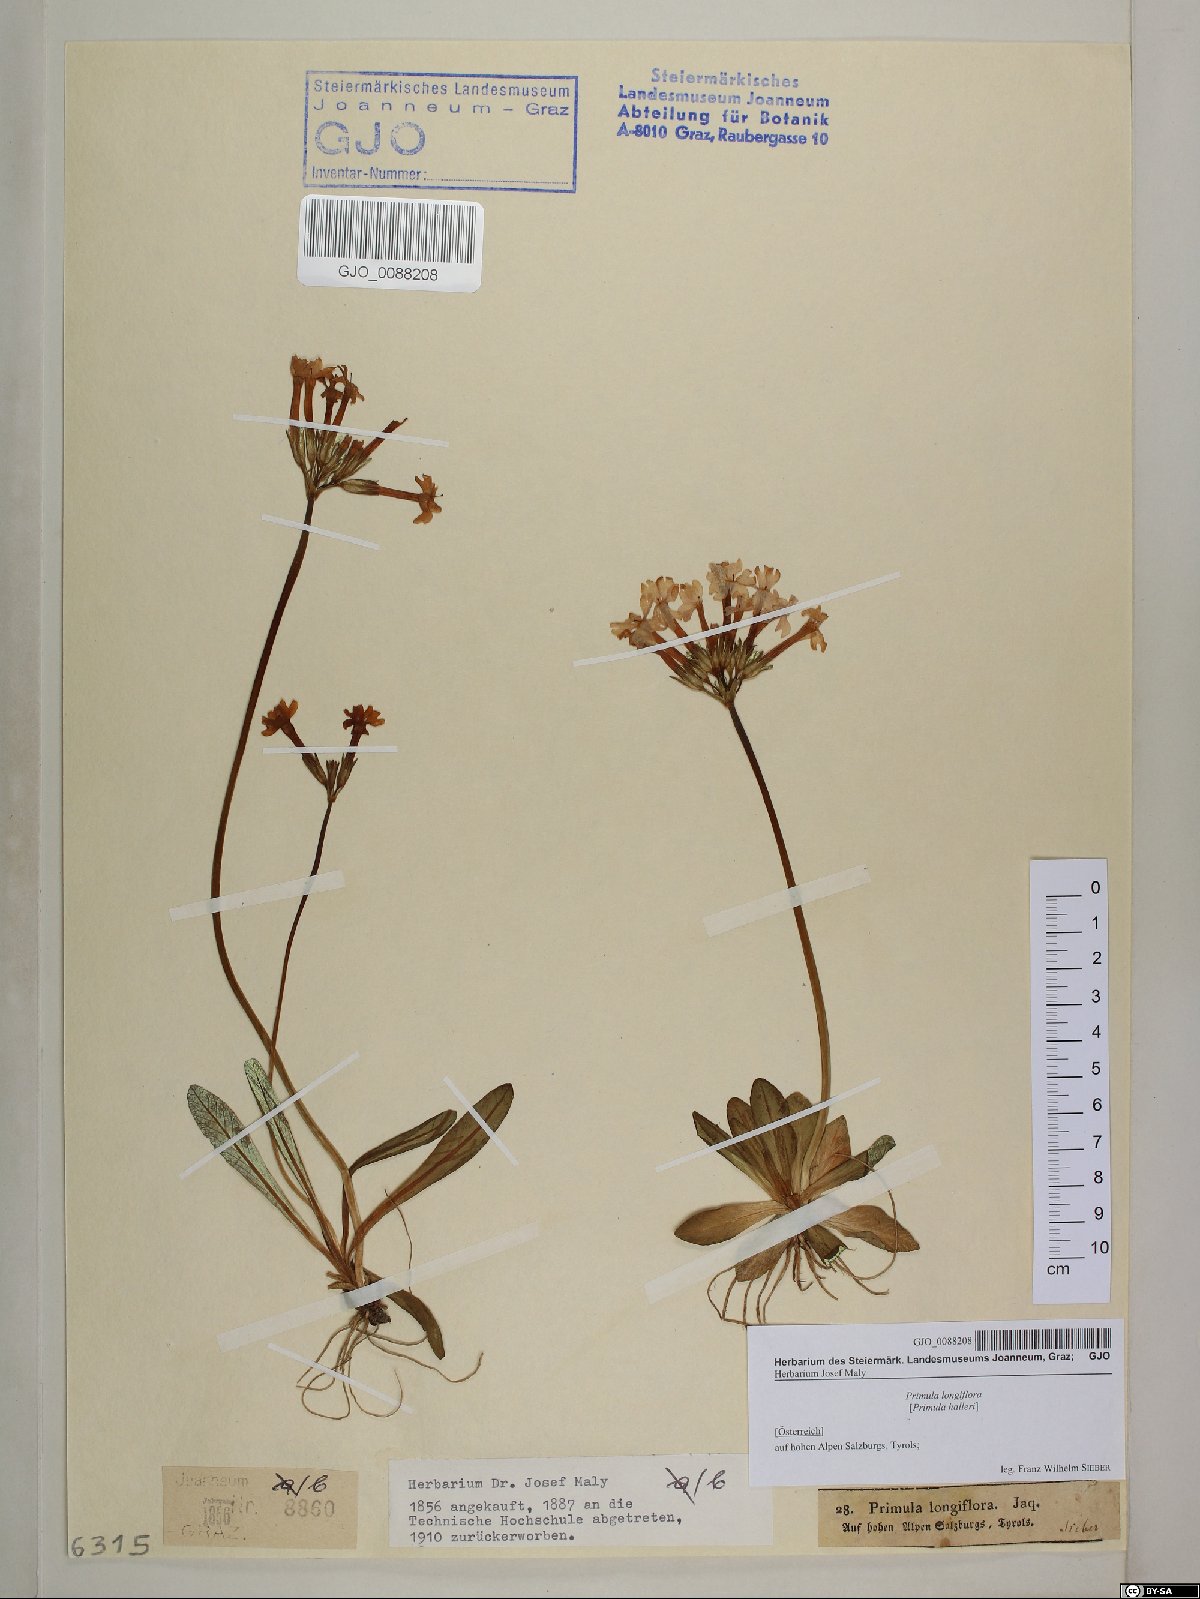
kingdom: Plantae
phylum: Tracheophyta
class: Magnoliopsida
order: Ericales
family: Primulaceae
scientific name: Primulaceae
